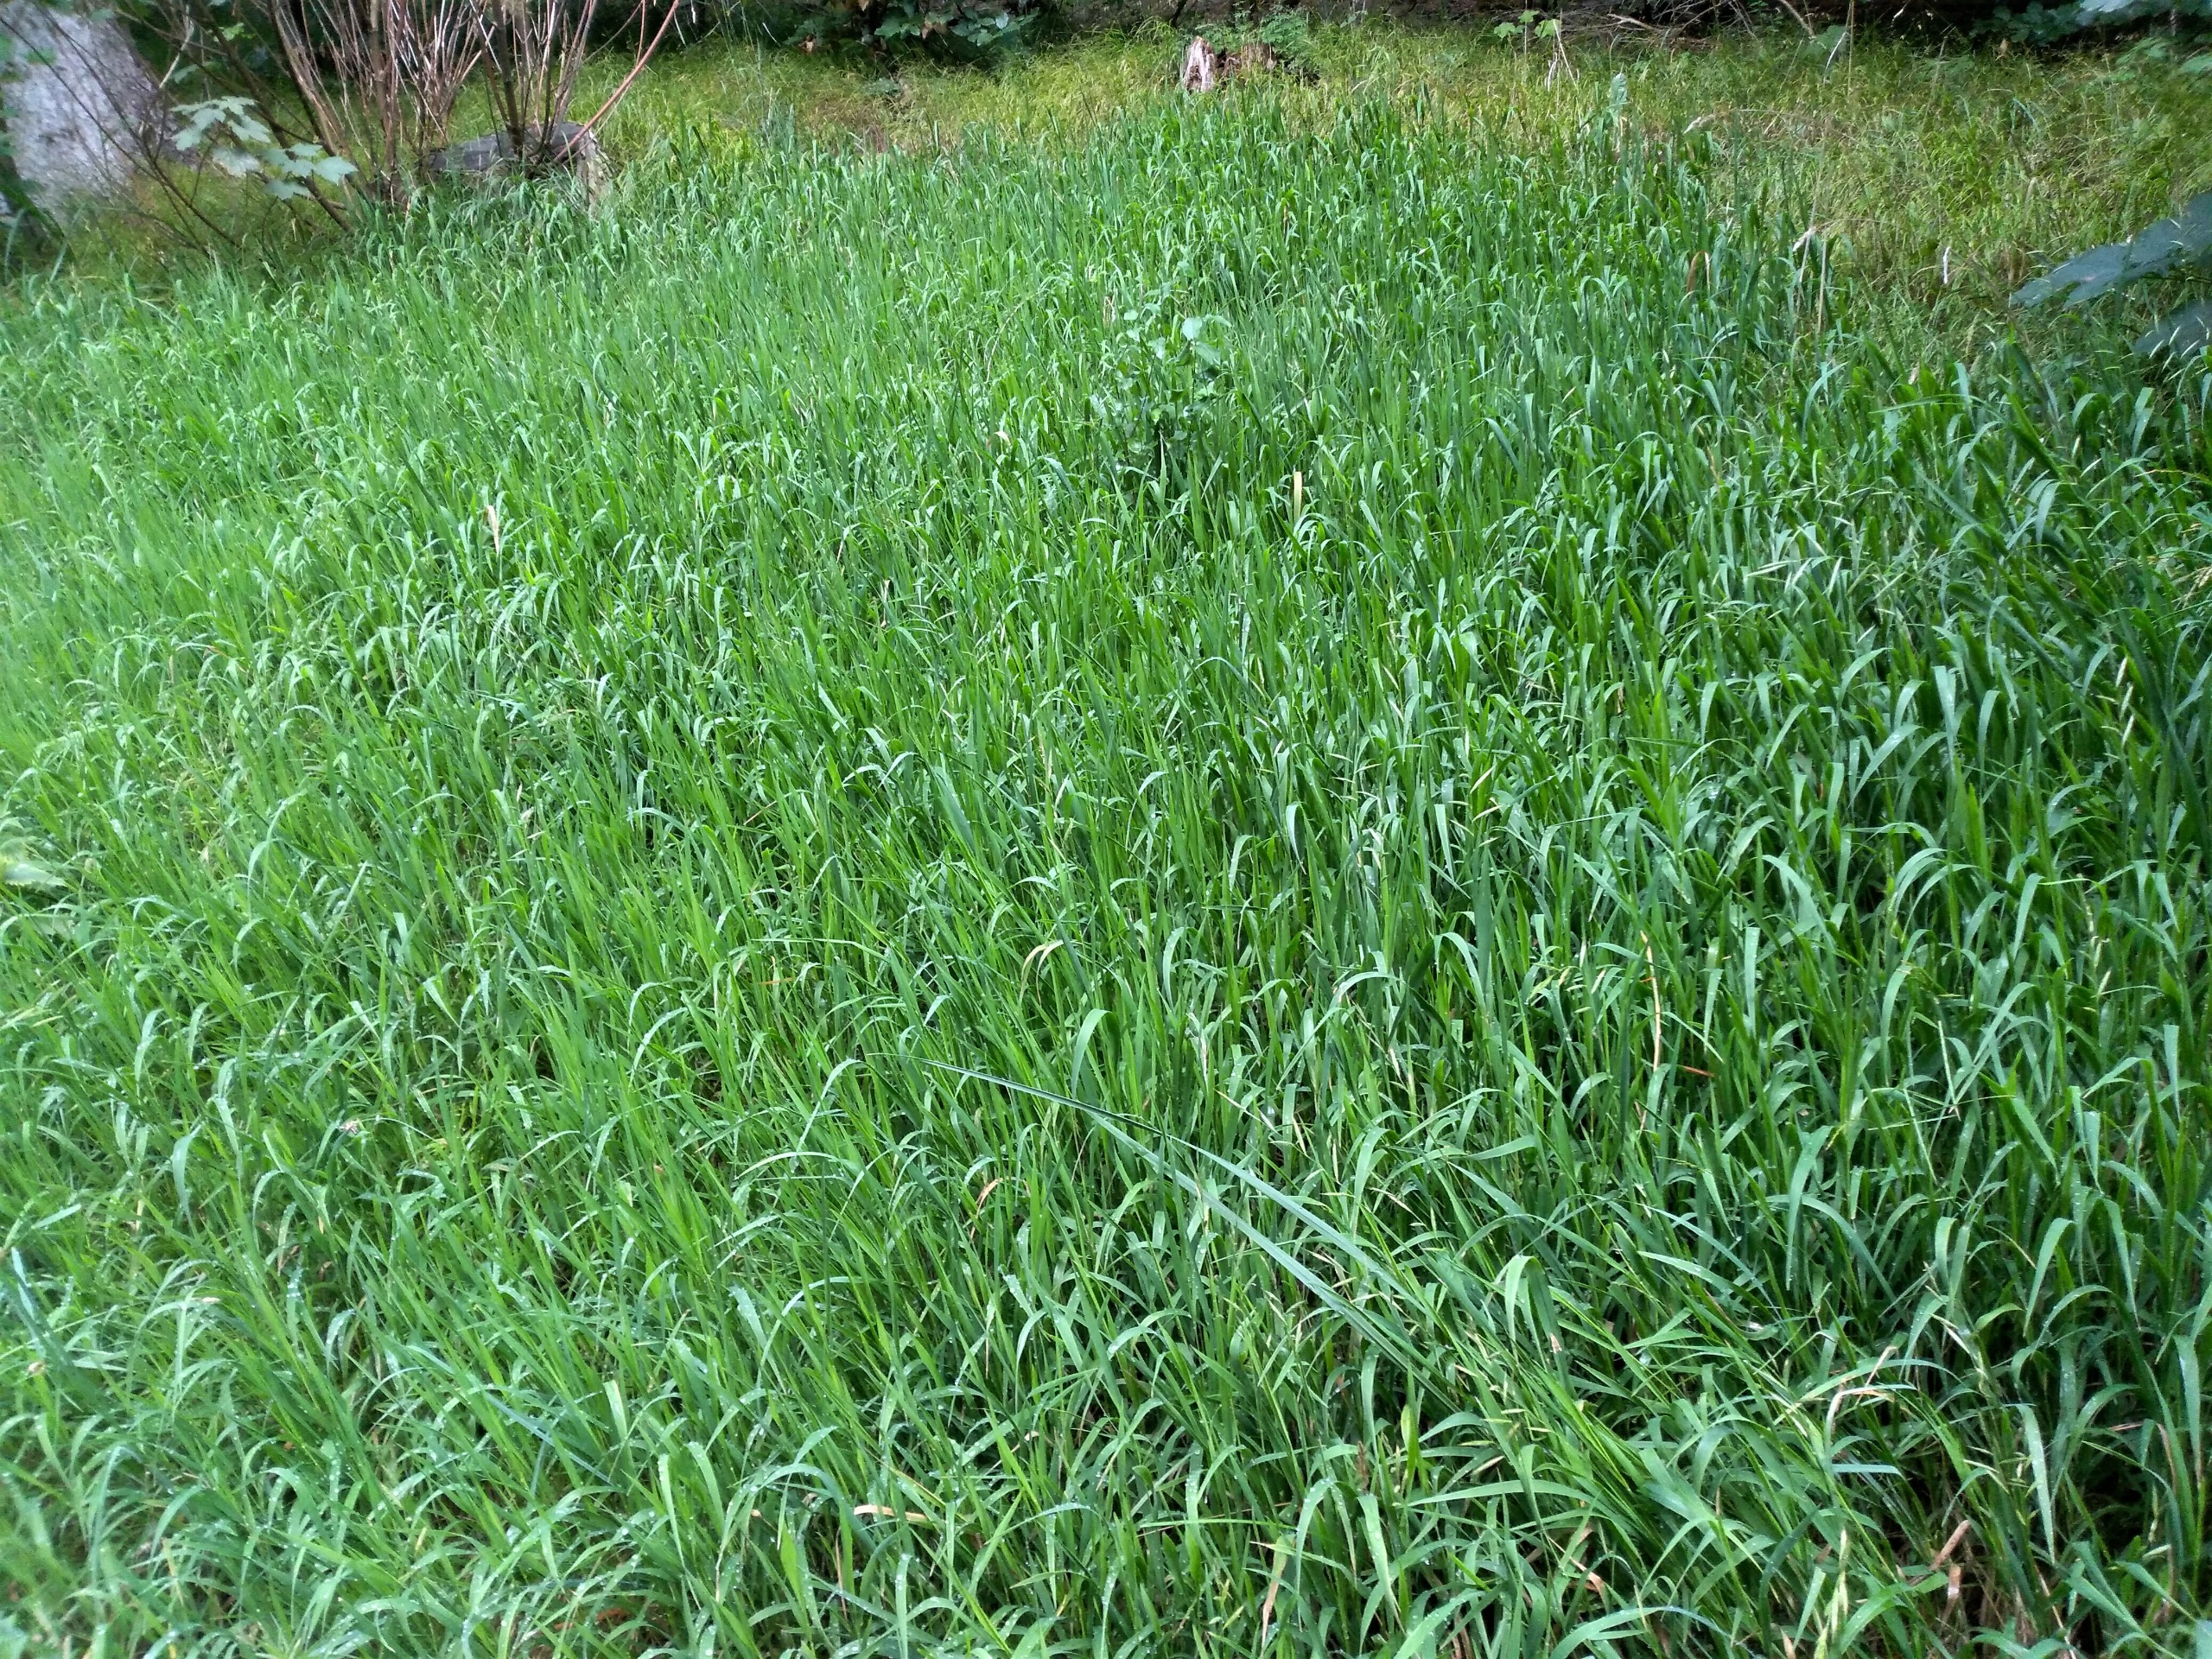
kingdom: Plantae
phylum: Tracheophyta
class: Liliopsida
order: Poales
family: Poaceae
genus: Brachypodium
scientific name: Brachypodium pinnatum
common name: Bakke-stilkaks
